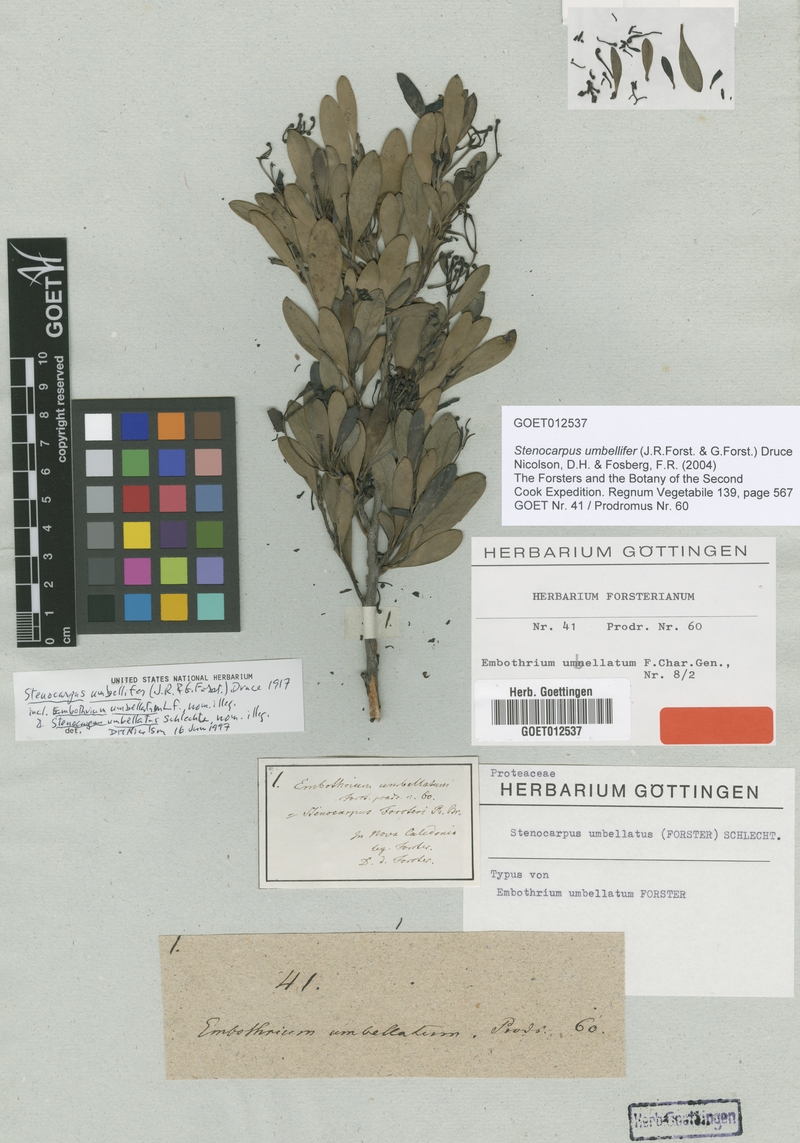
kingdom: Plantae
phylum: Tracheophyta
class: Magnoliopsida
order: Proteales
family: Proteaceae
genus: Stenocarpus
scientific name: Stenocarpus umbellifer
